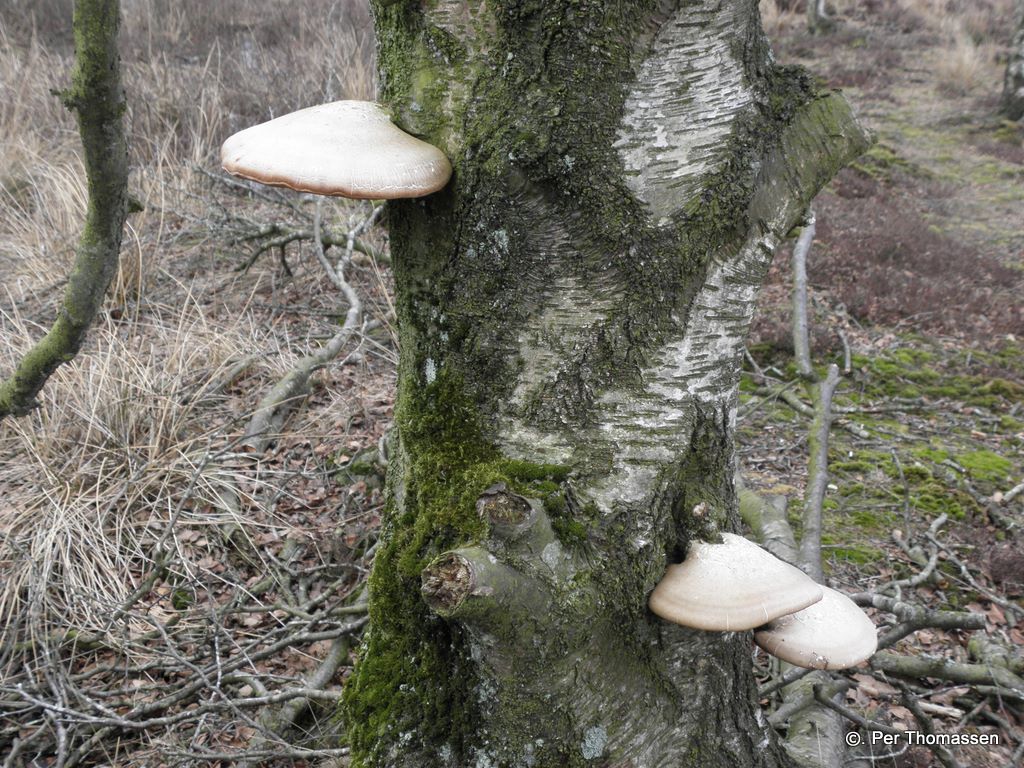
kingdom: Fungi
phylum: Basidiomycota
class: Agaricomycetes
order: Polyporales
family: Fomitopsidaceae
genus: Fomitopsis
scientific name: Fomitopsis betulina
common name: birkeporesvamp
